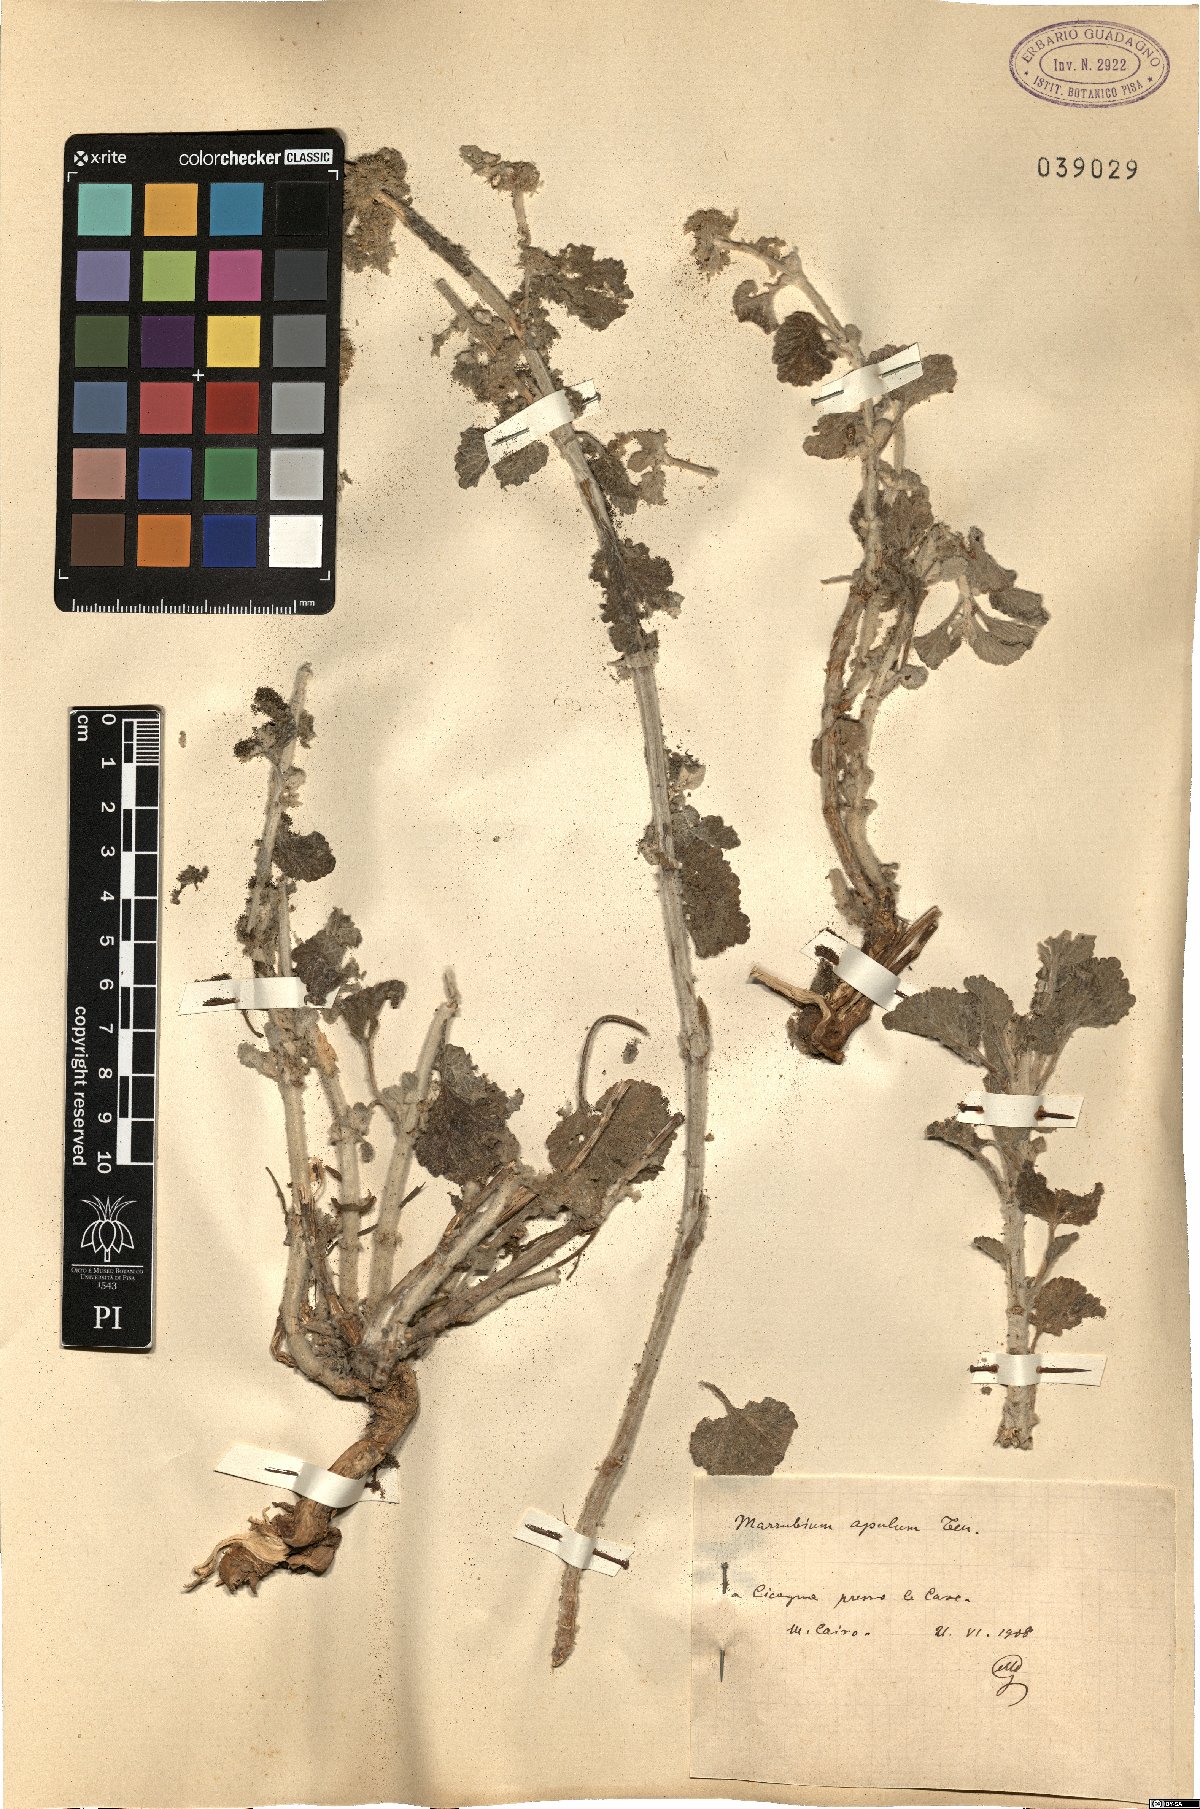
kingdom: Plantae
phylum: Tracheophyta
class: Magnoliopsida
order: Lamiales
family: Lamiaceae
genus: Marrubium
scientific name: Marrubium vulgare
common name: Horehound
